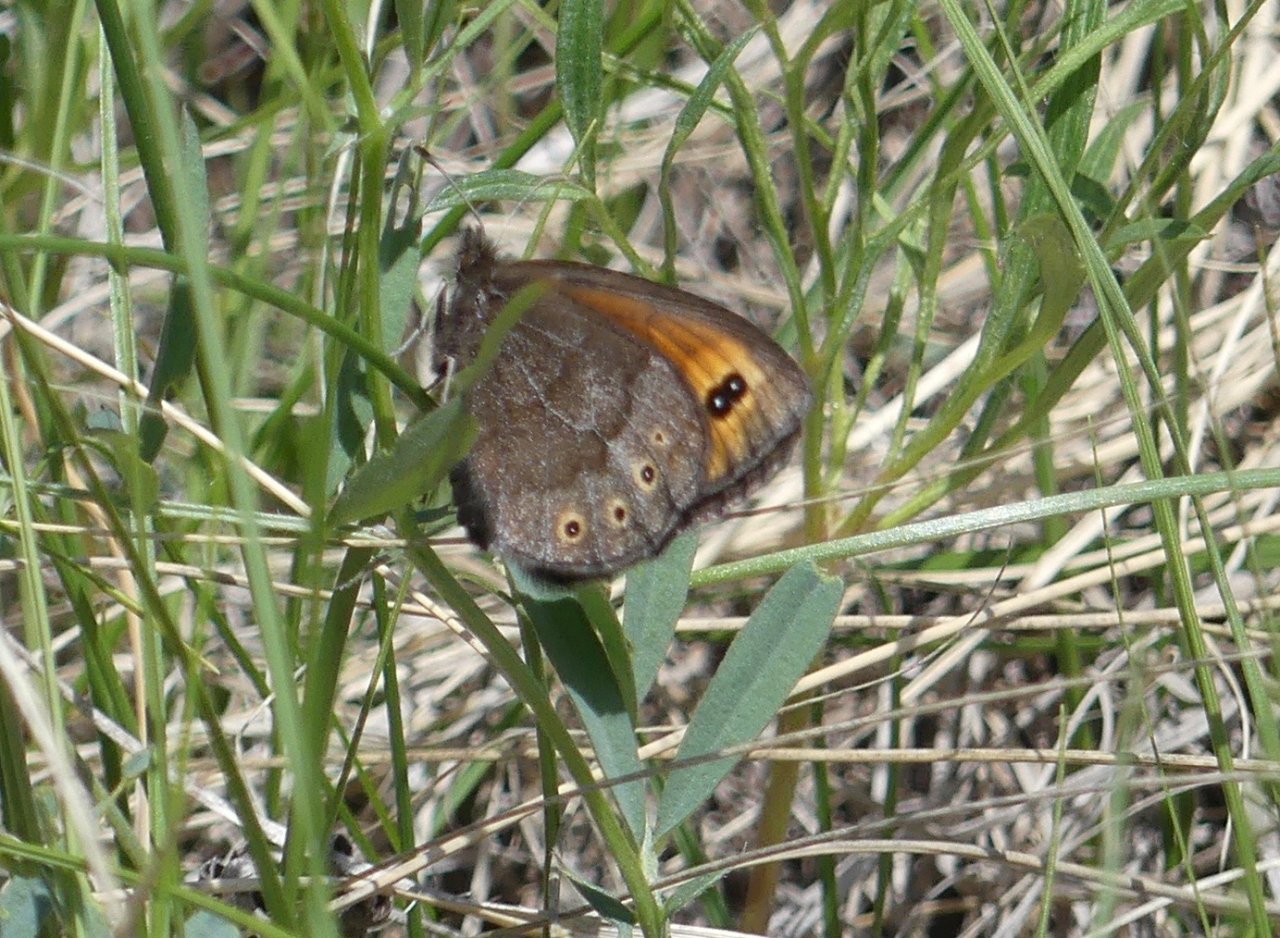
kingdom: Animalia
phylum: Arthropoda
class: Insecta
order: Lepidoptera
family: Nymphalidae
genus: Erebia
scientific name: Erebia epipsodea
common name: Common Alpine
